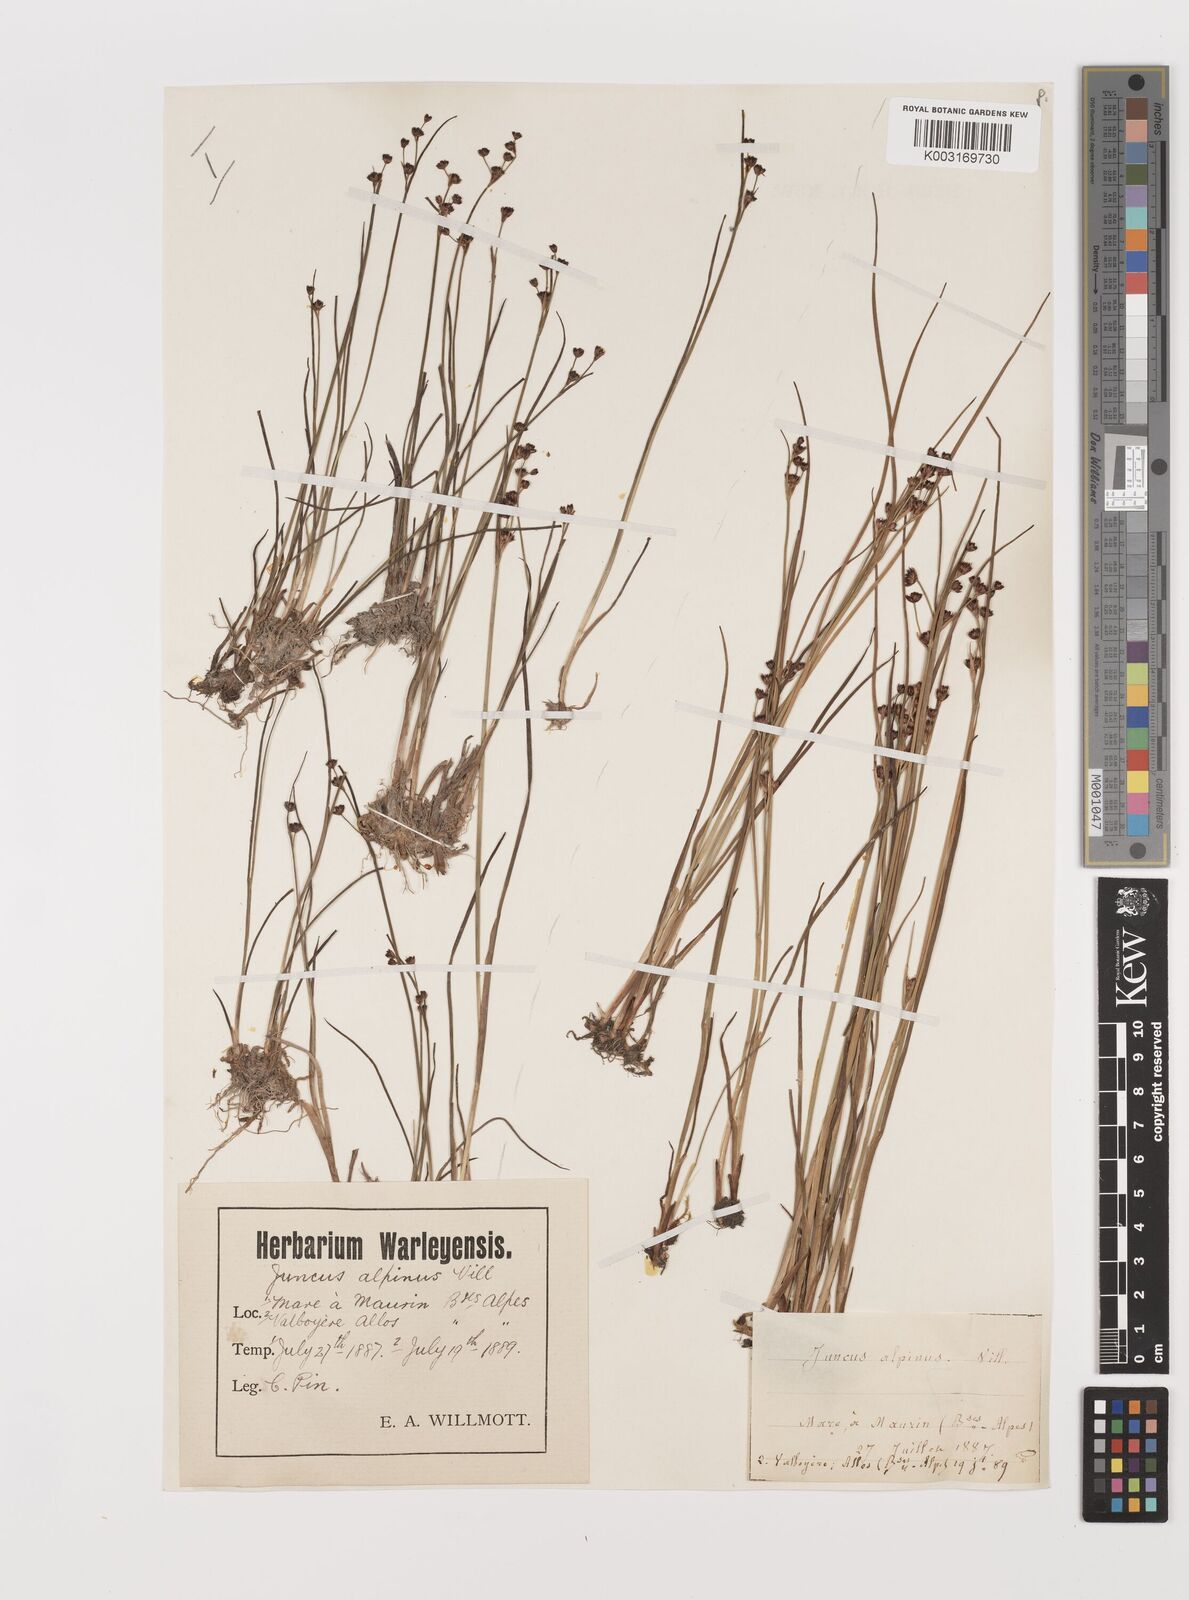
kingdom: Plantae
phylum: Tracheophyta
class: Liliopsida
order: Poales
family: Juncaceae
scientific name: Juncaceae
